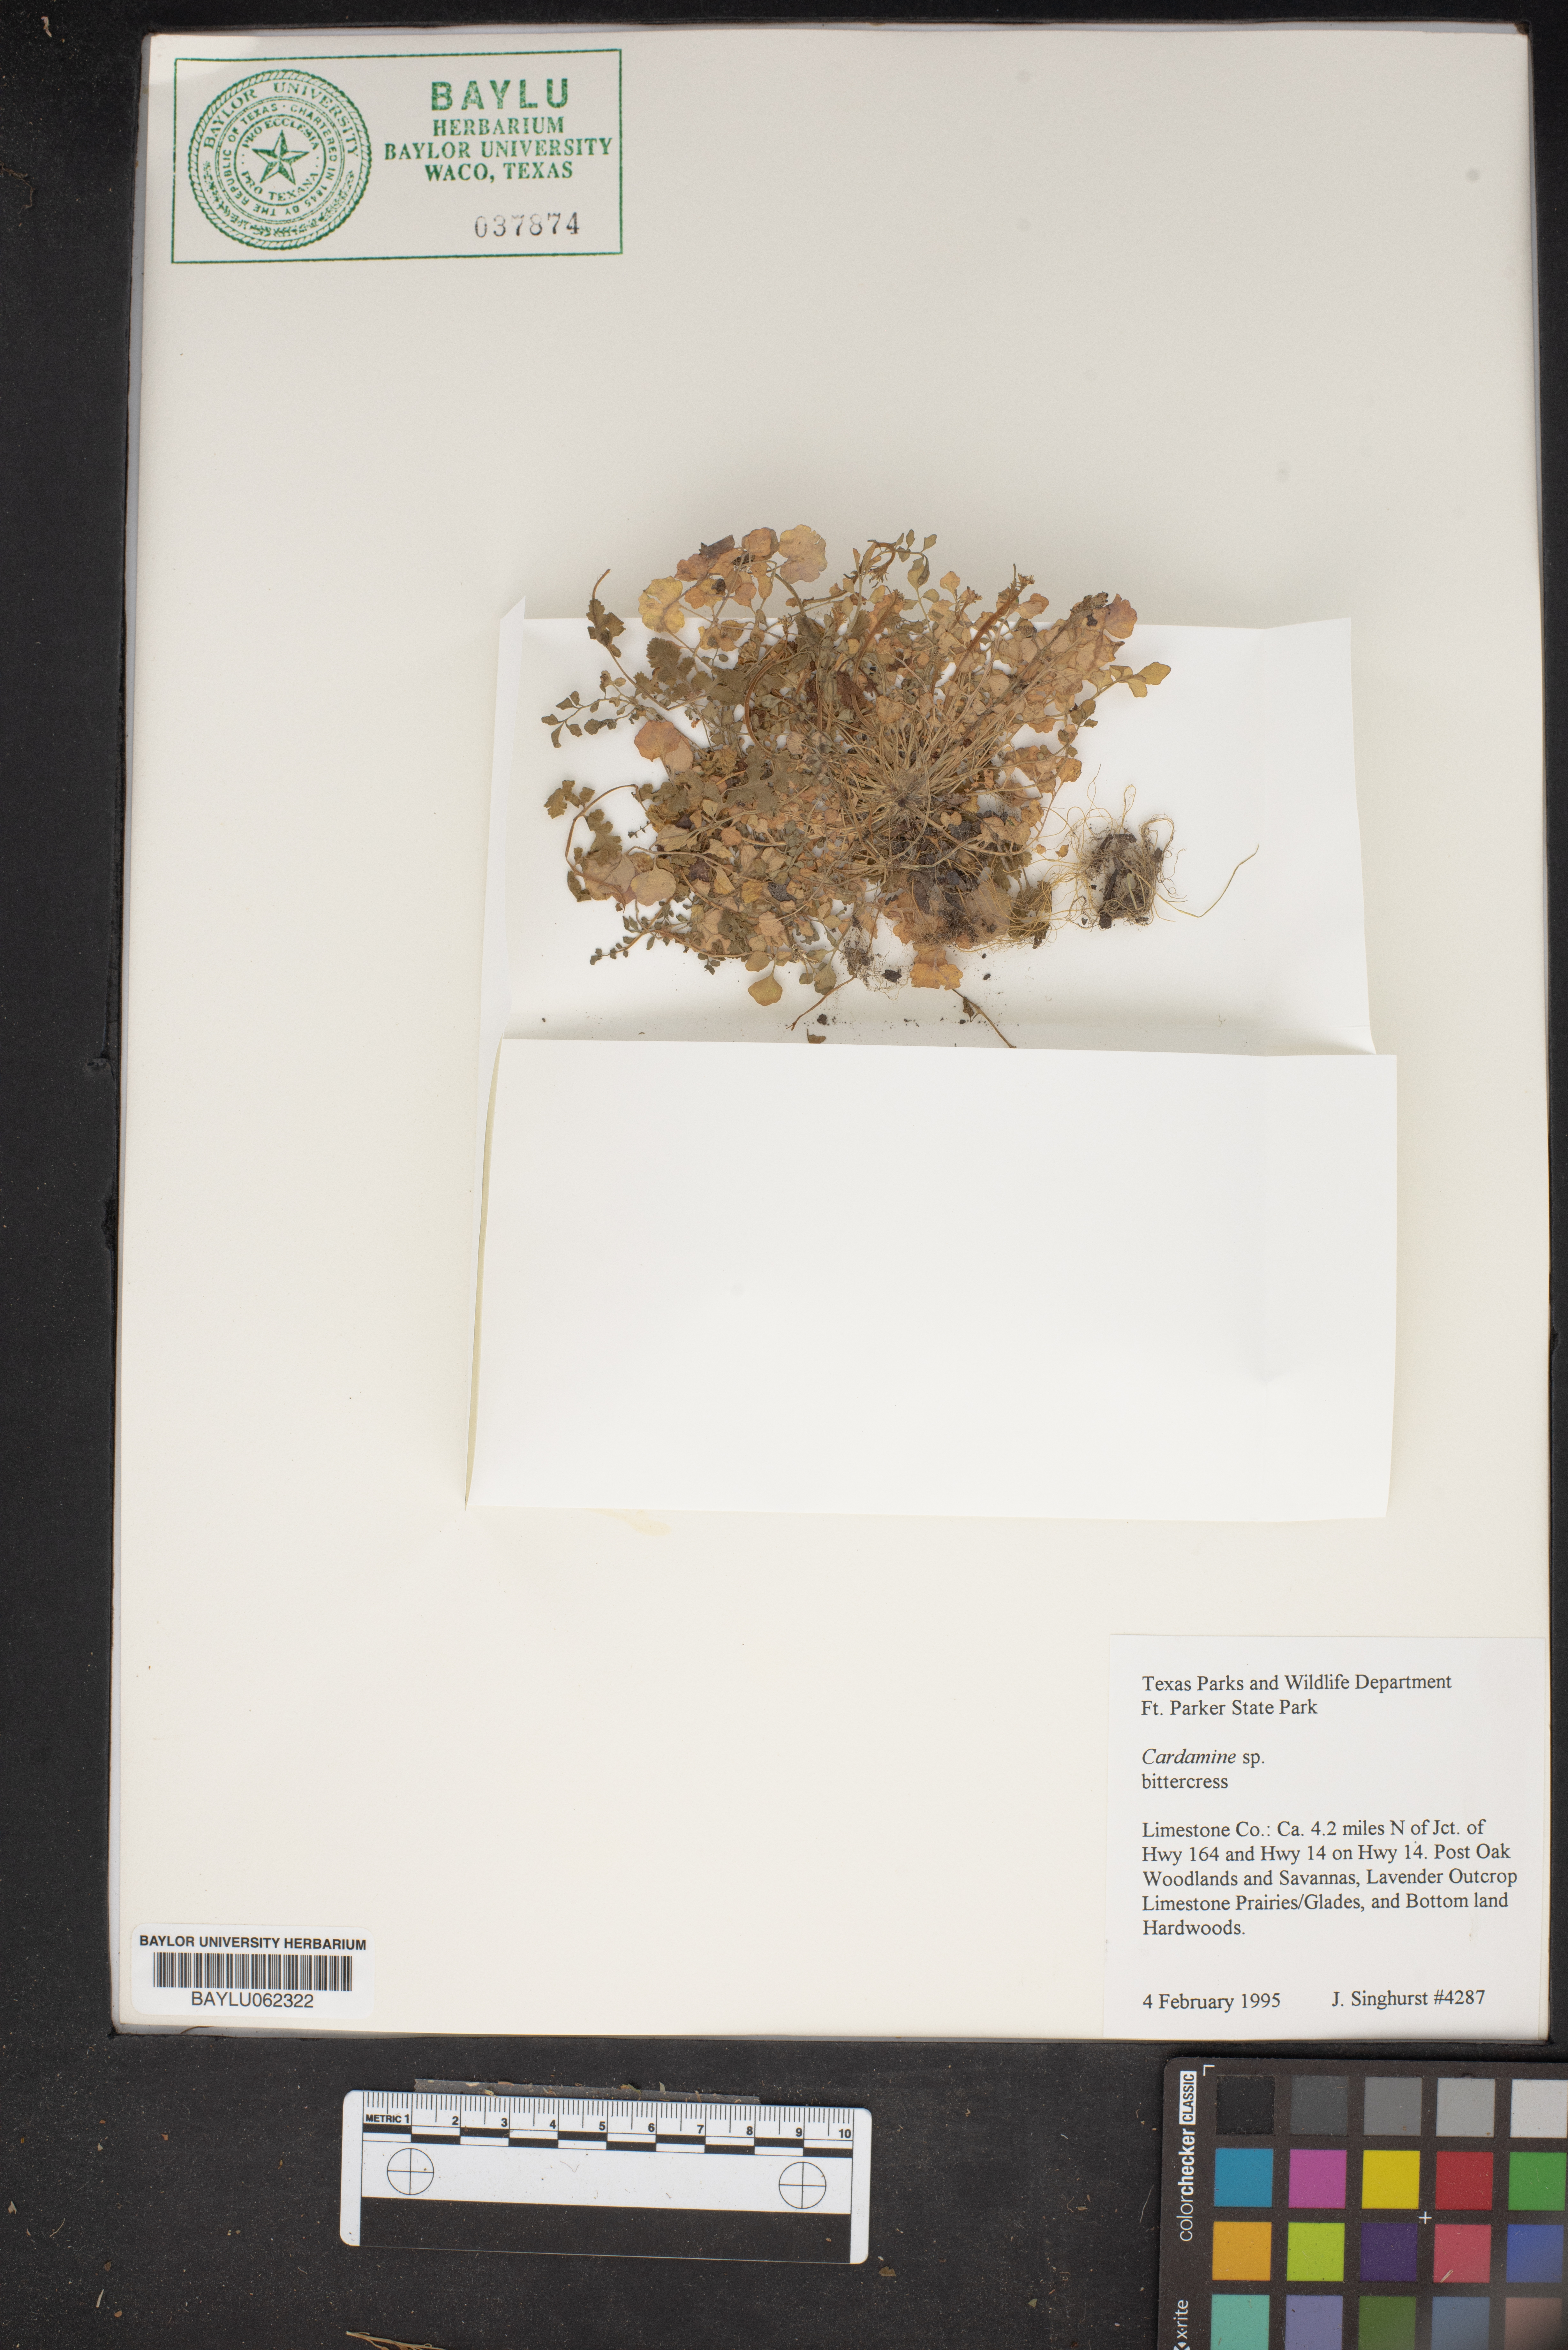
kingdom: Plantae
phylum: Tracheophyta
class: Magnoliopsida
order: Brassicales
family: Brassicaceae
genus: Cardamine
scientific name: Cardamine
